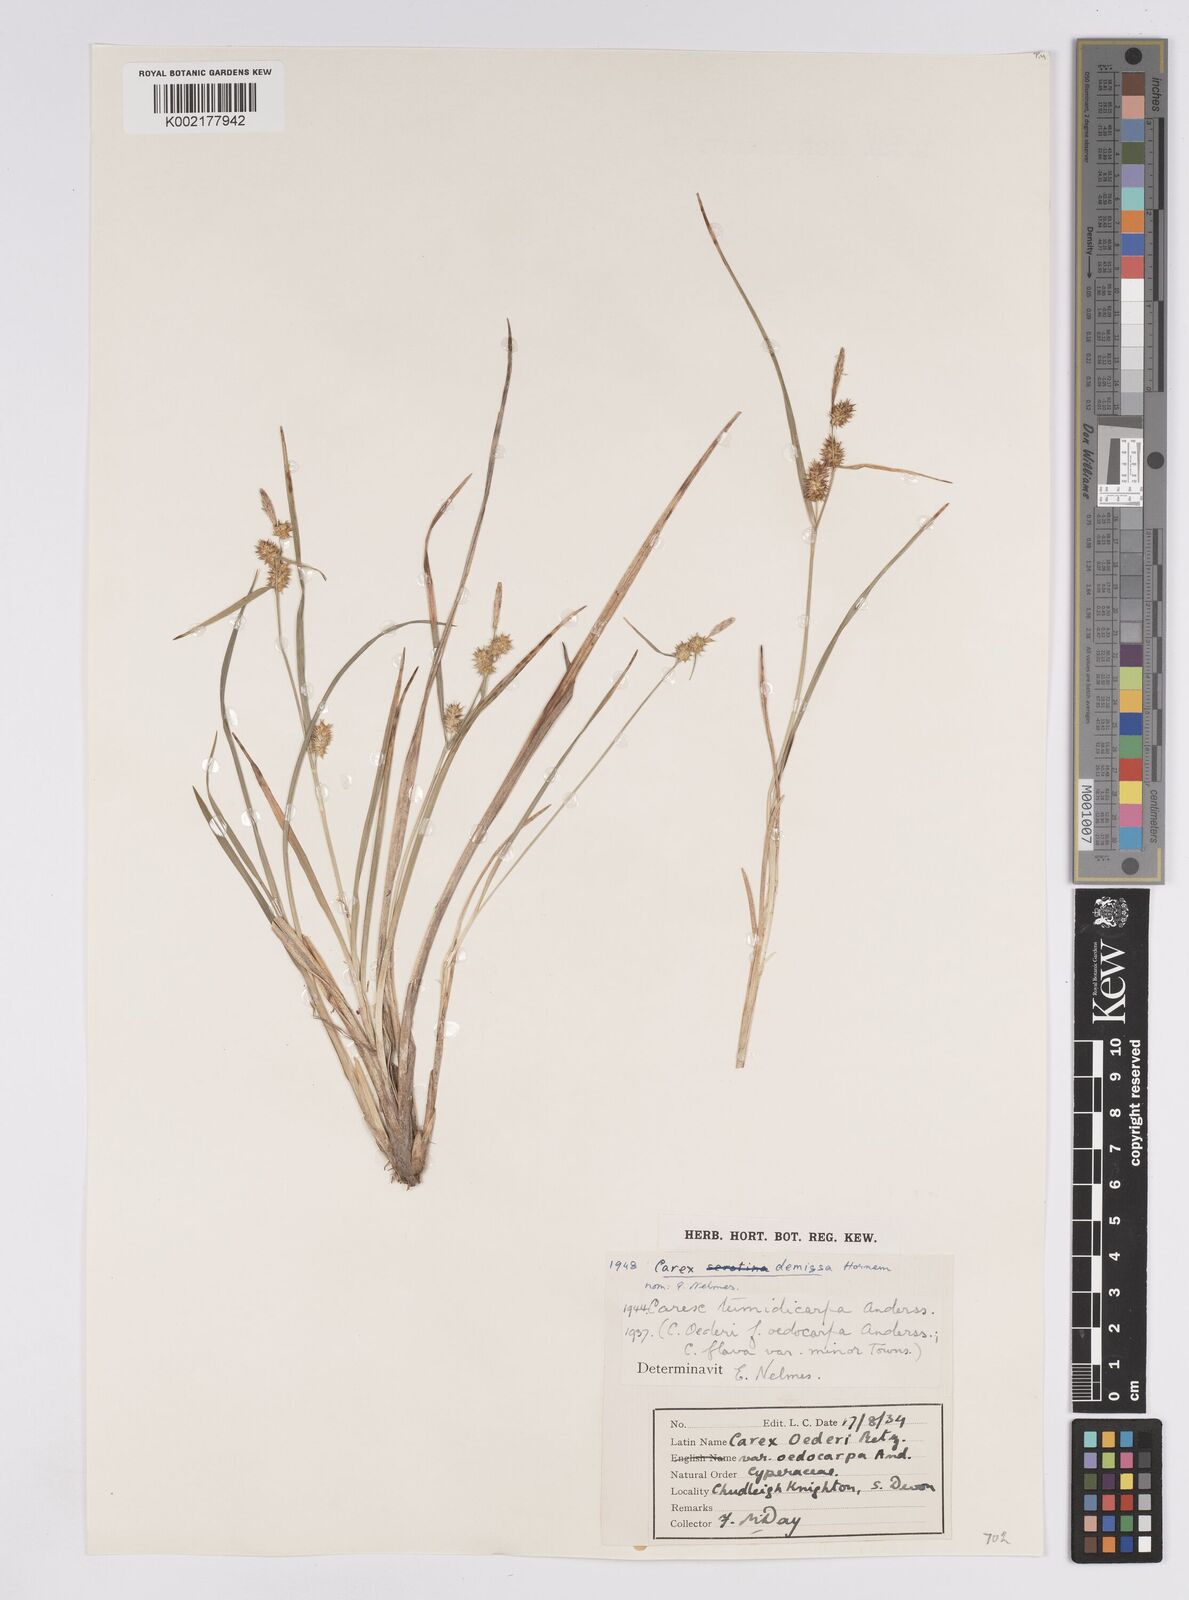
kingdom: Plantae
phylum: Tracheophyta
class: Liliopsida
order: Poales
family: Cyperaceae
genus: Carex
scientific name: Carex demissa
